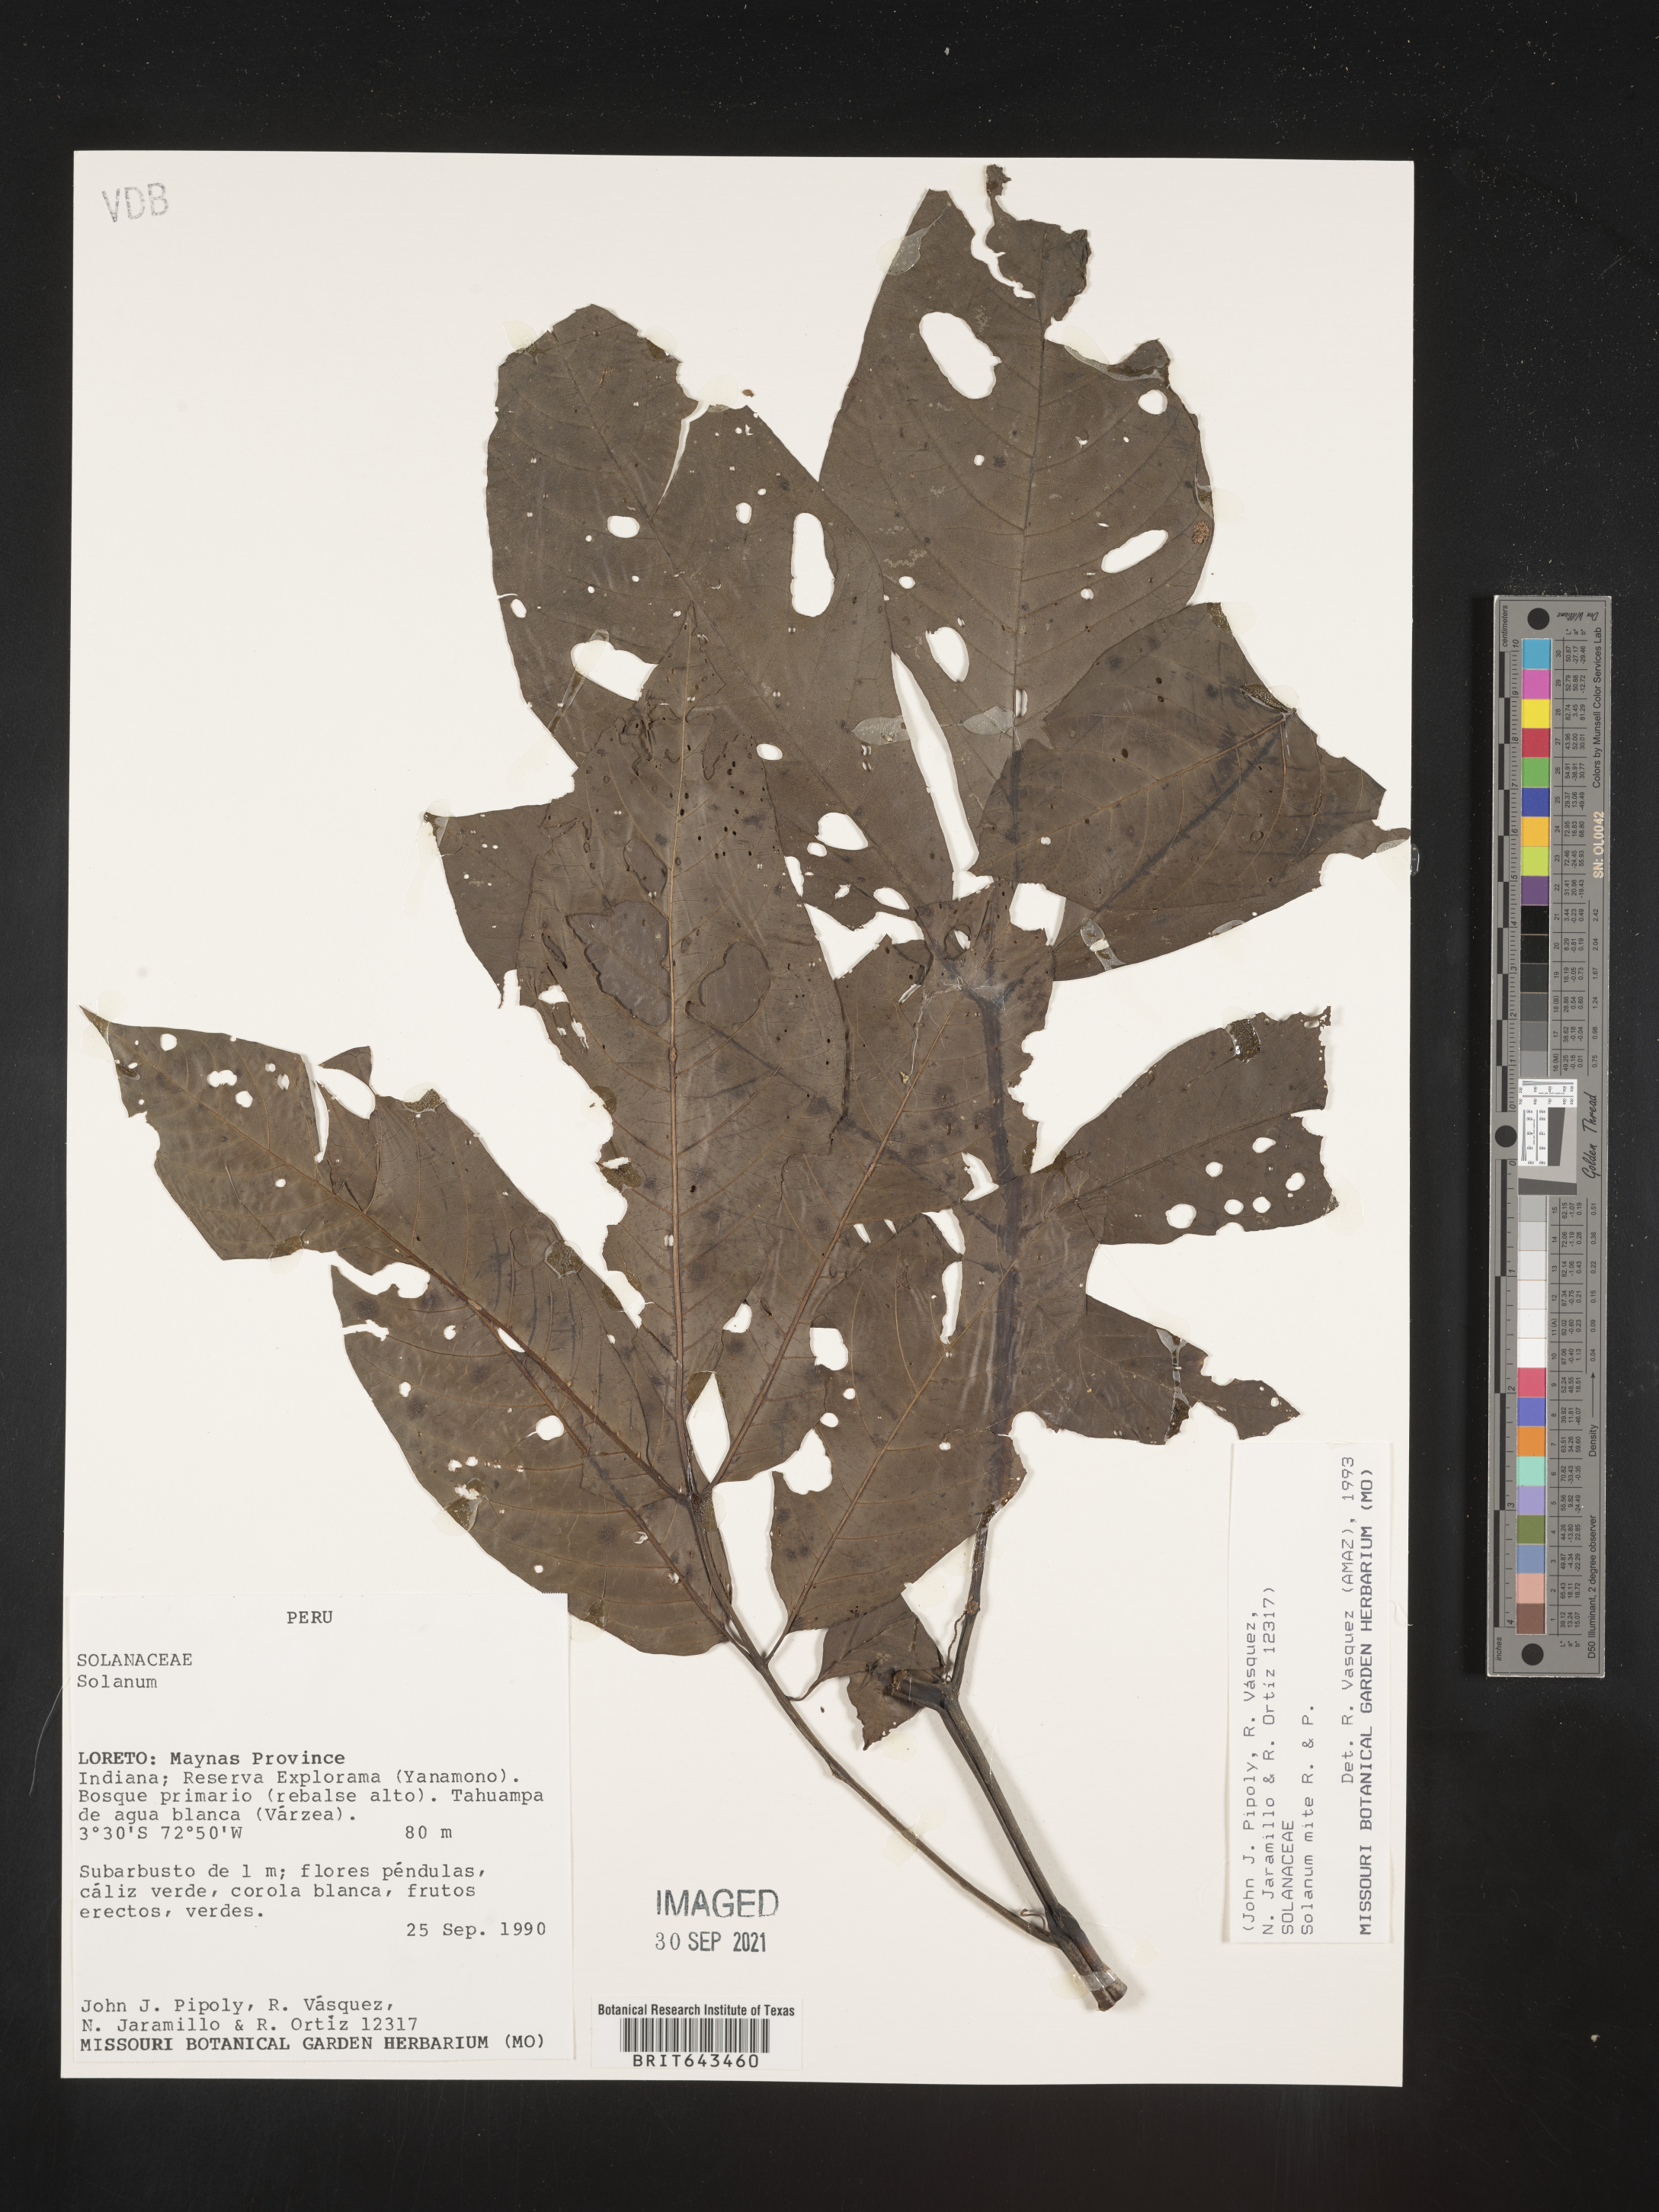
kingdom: Plantae
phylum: Tracheophyta
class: Magnoliopsida
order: Solanales
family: Solanaceae
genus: Solanum
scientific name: Solanum
